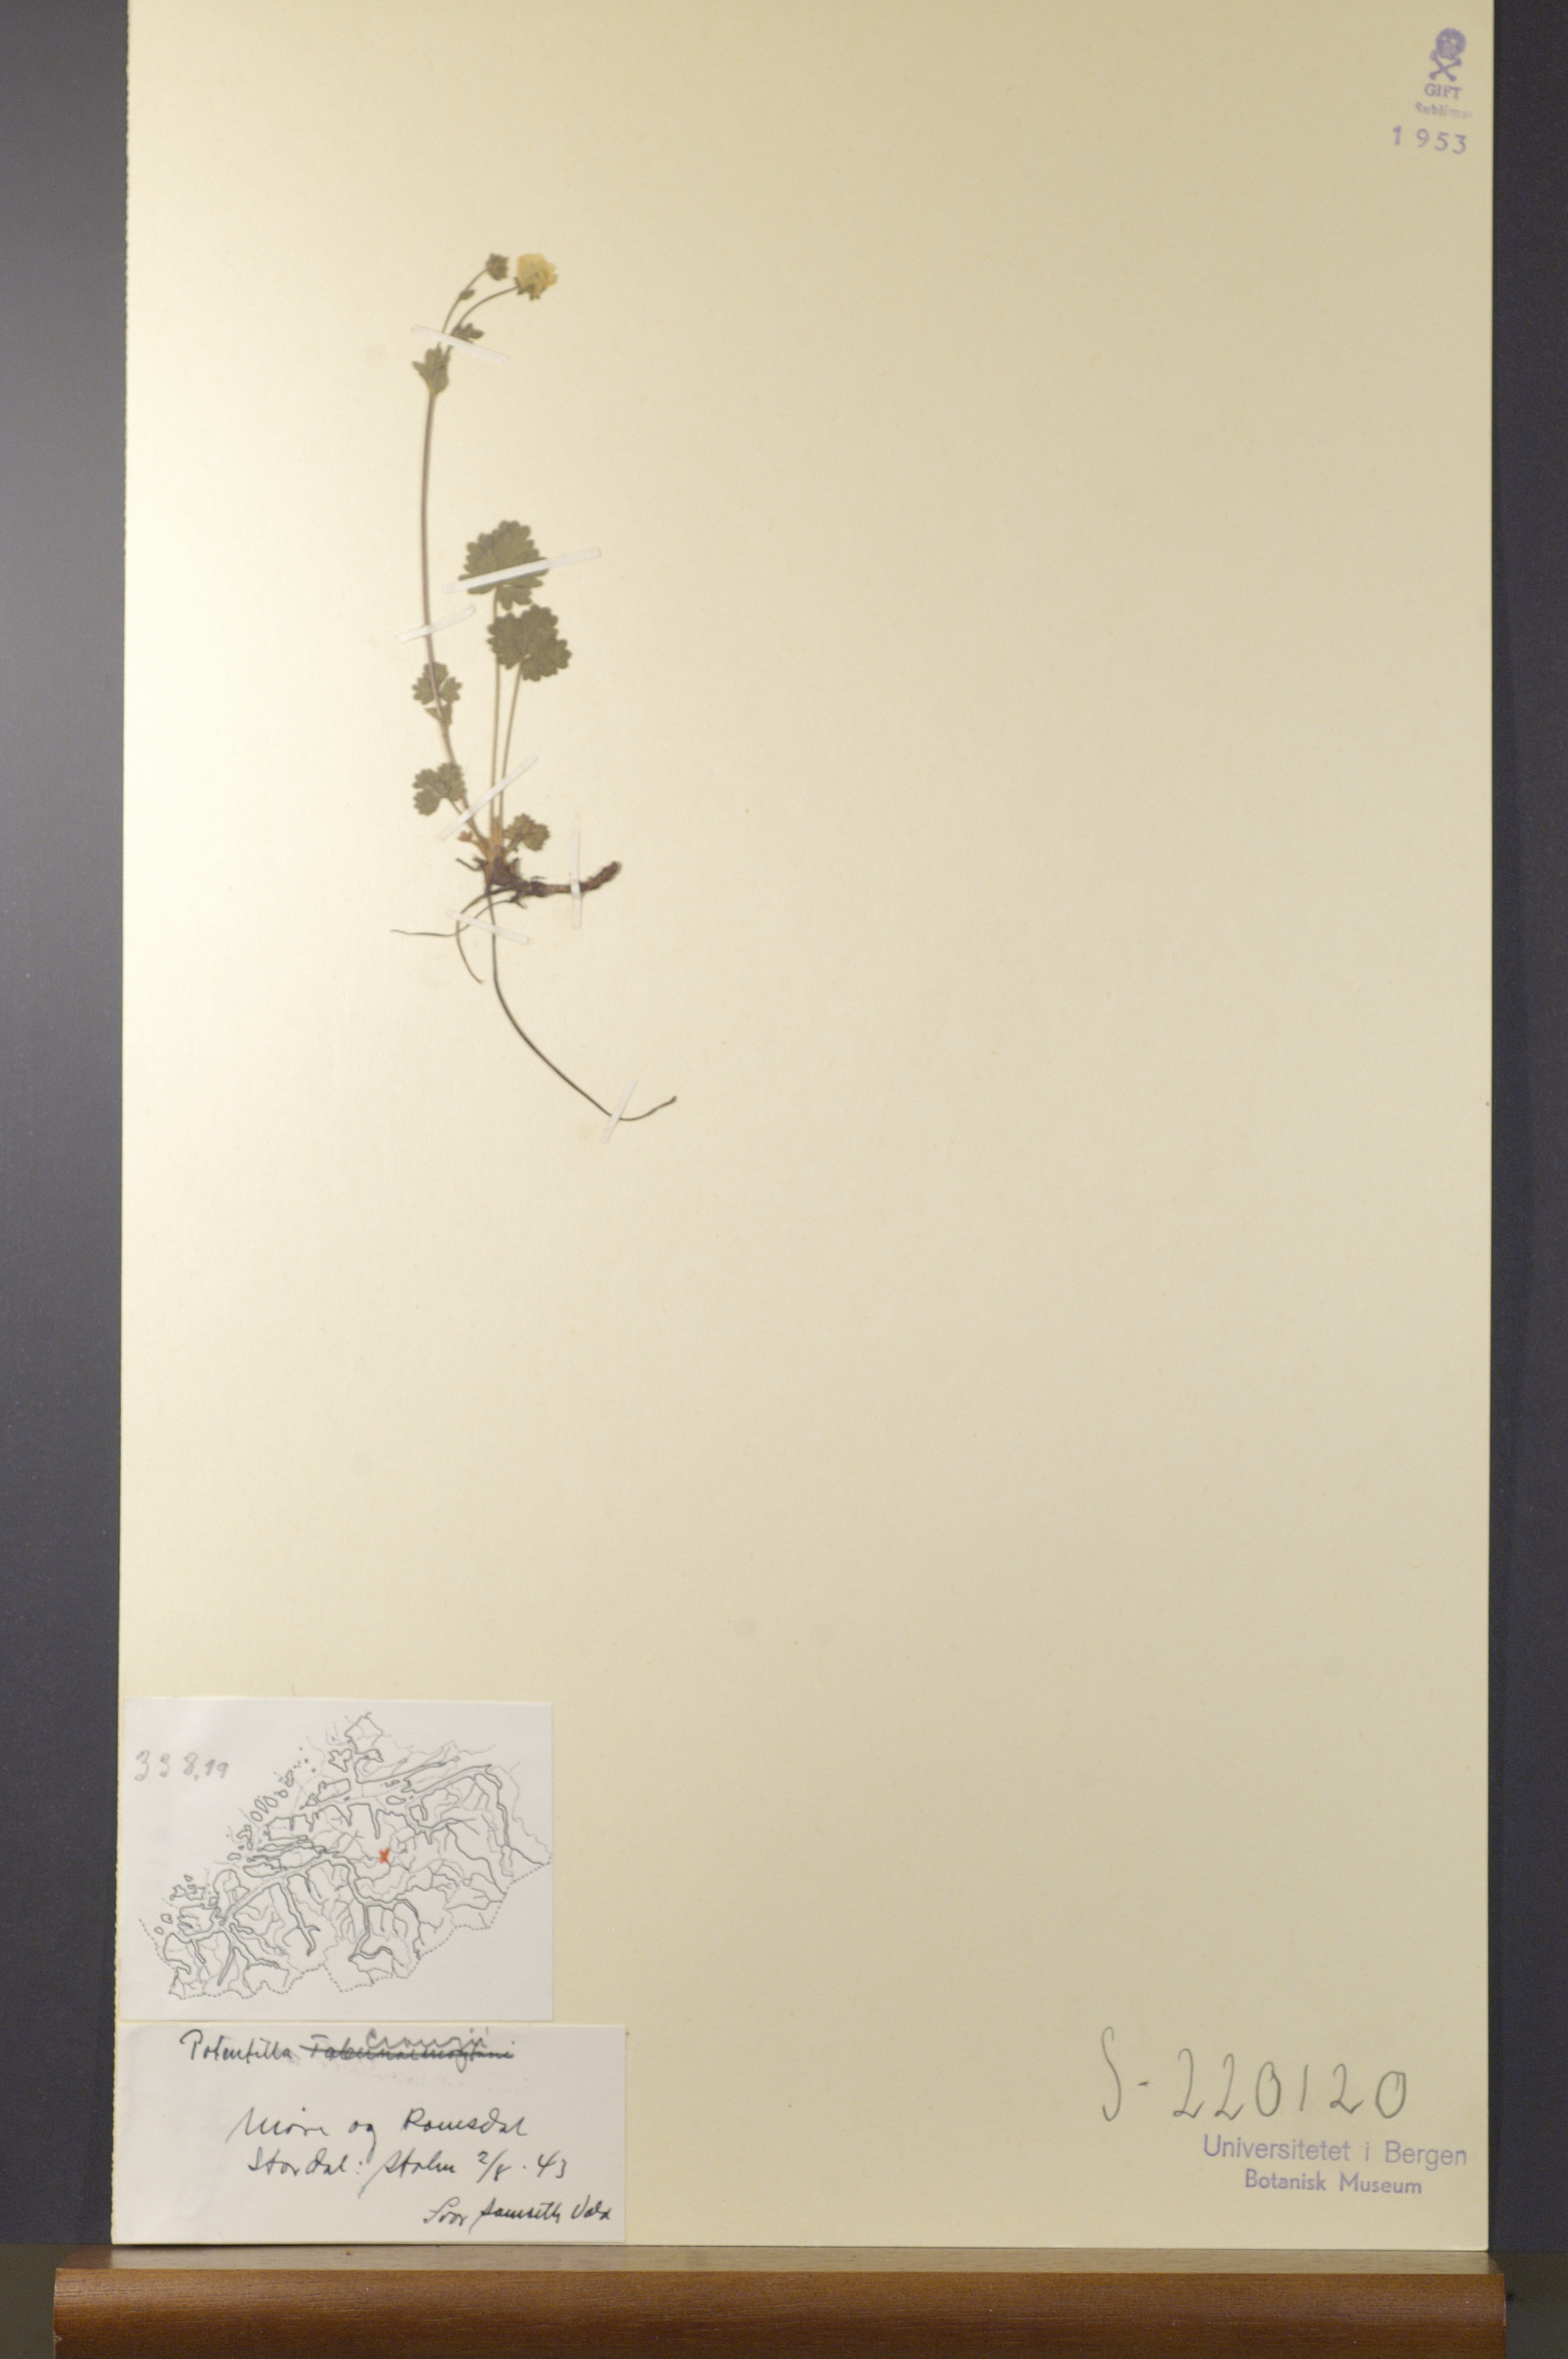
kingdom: Plantae
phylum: Tracheophyta
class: Magnoliopsida
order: Rosales
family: Rosaceae
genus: Potentilla
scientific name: Potentilla crantzii
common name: Alpine cinquefoil
